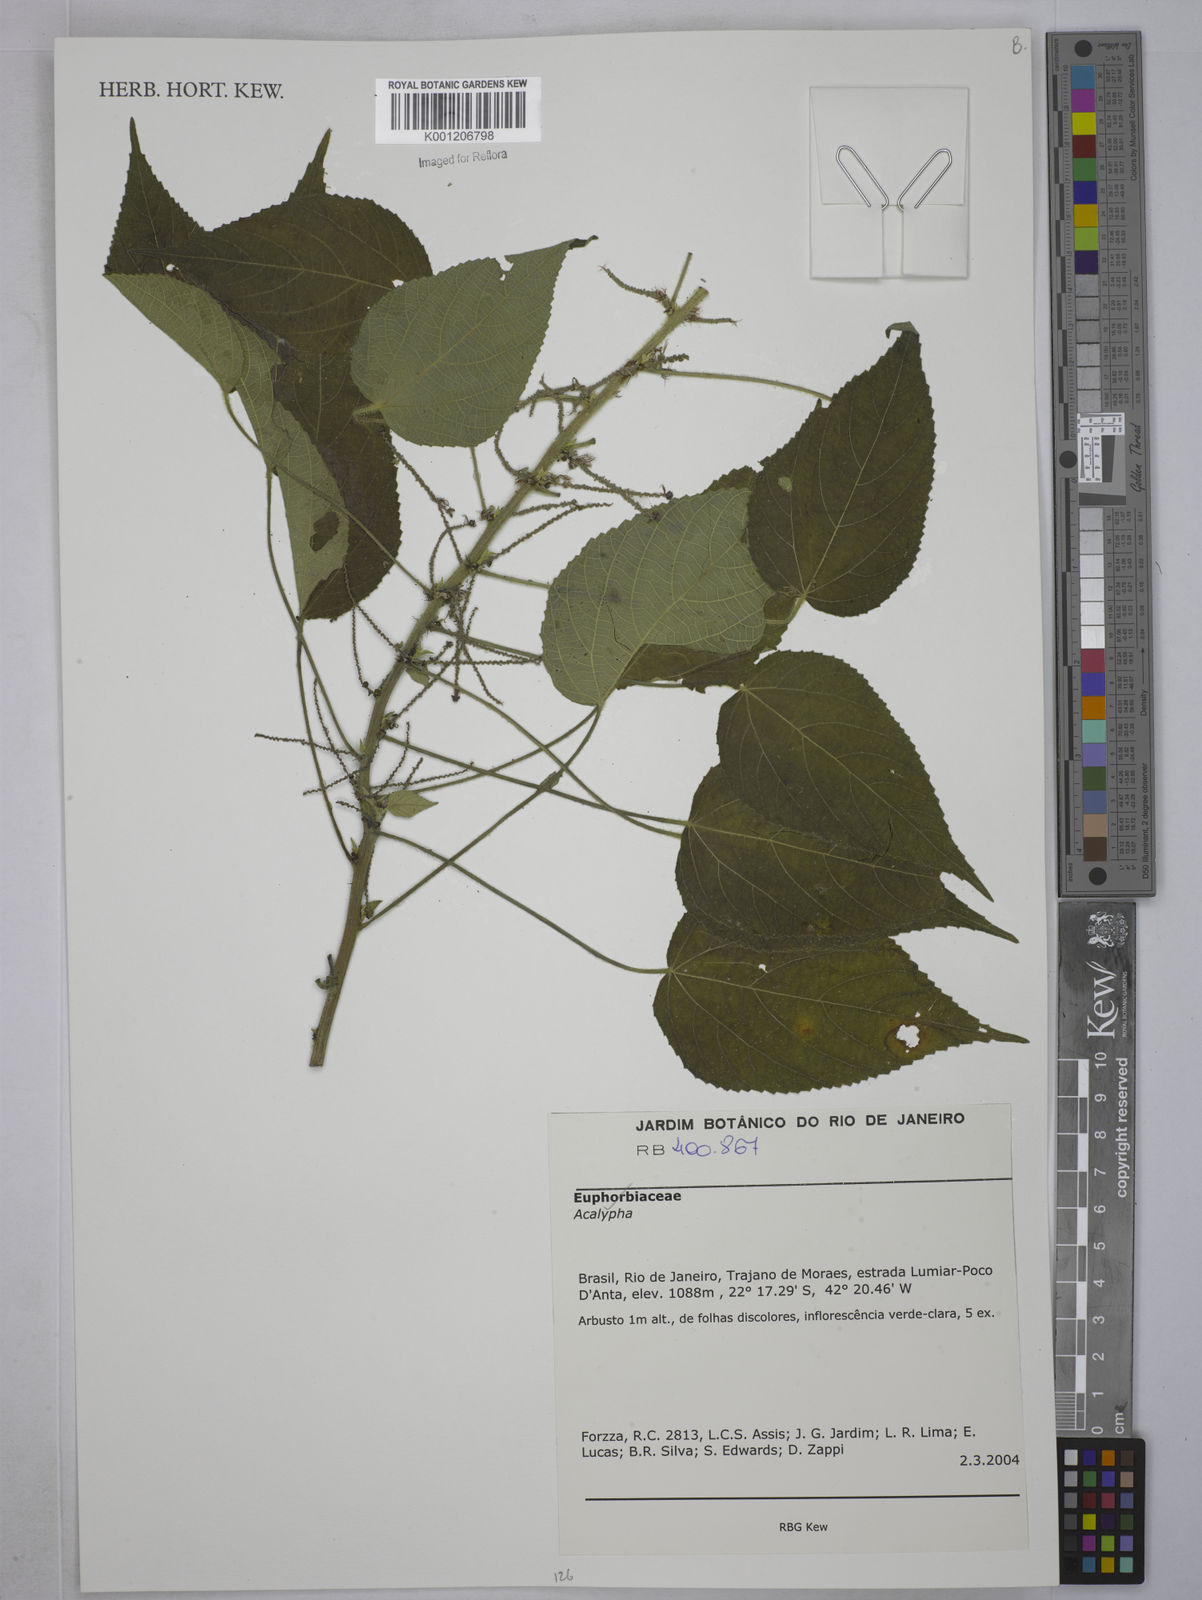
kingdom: Plantae
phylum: Tracheophyta
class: Magnoliopsida
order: Malpighiales
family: Euphorbiaceae
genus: Acalypha
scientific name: Acalypha
